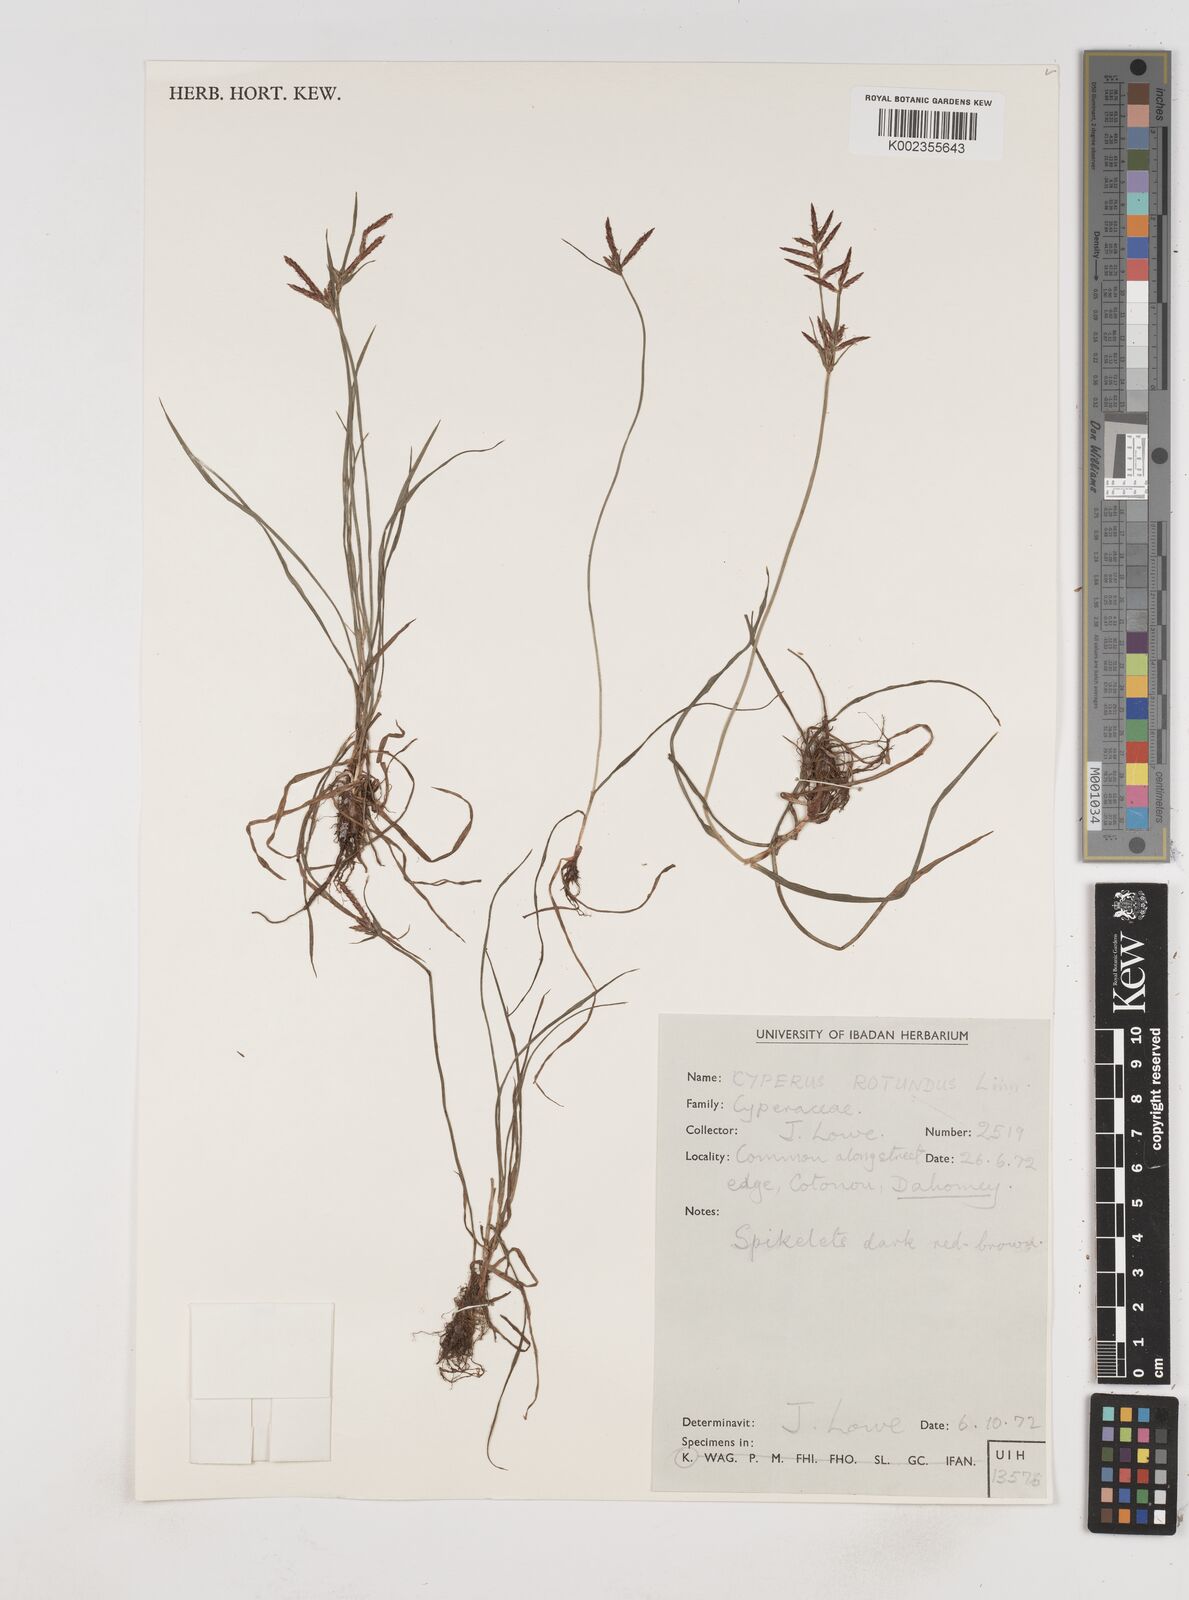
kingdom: Plantae
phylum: Tracheophyta
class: Liliopsida
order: Poales
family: Cyperaceae
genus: Cyperus
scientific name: Cyperus rotundus
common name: Nutgrass
